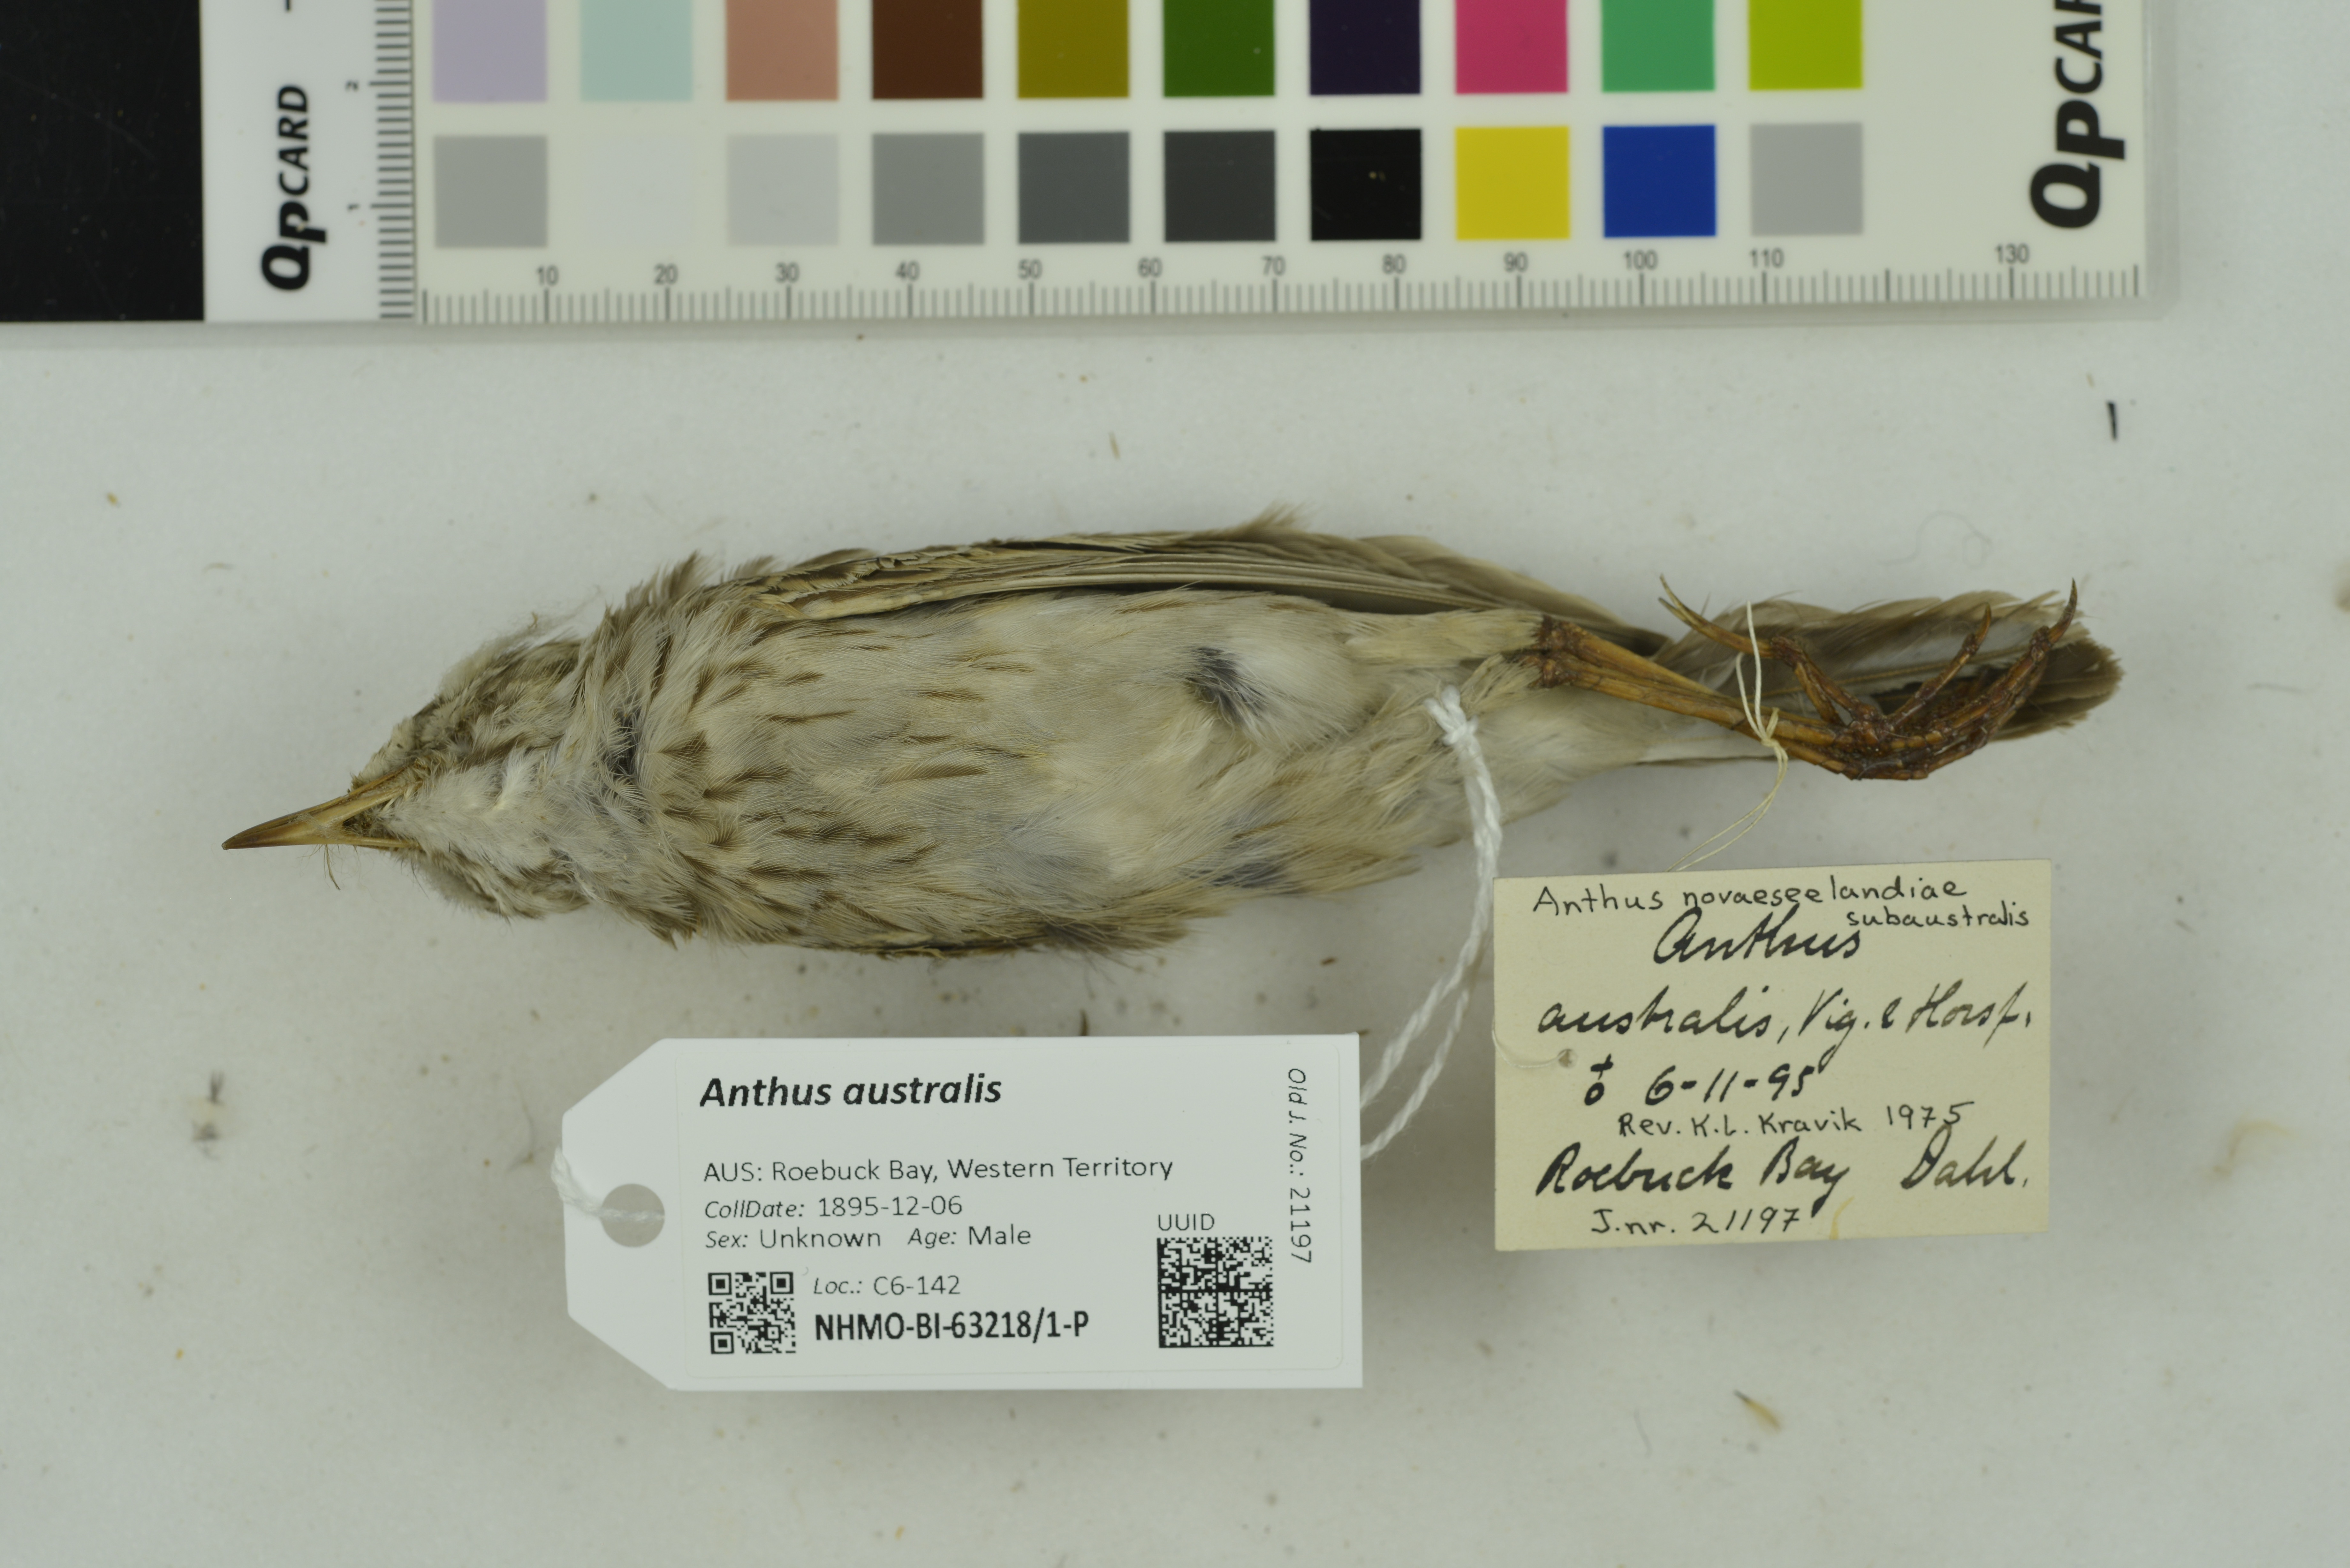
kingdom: Animalia
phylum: Chordata
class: Aves
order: Passeriformes
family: Motacillidae
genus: Anthus
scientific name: Anthus australis
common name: Australian pipit
